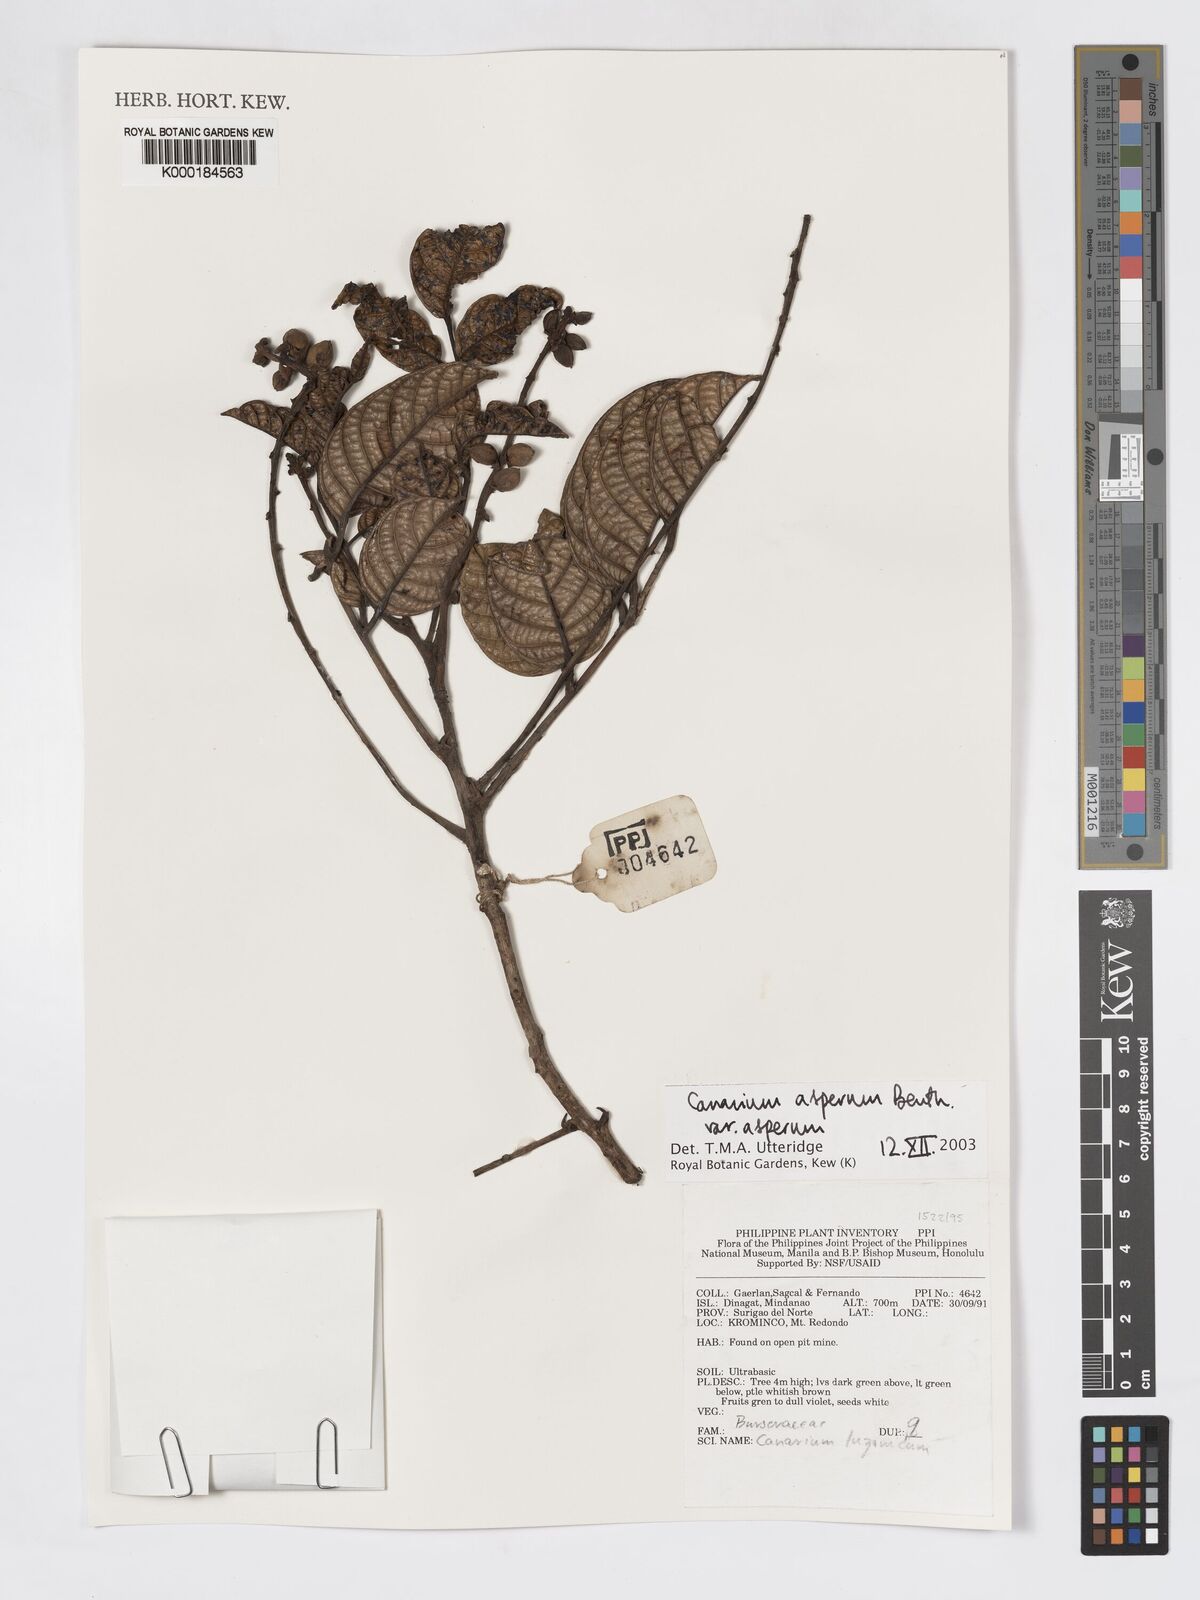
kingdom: Plantae
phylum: Tracheophyta
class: Magnoliopsida
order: Sapindales
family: Burseraceae
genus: Canarium
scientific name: Canarium asperum
